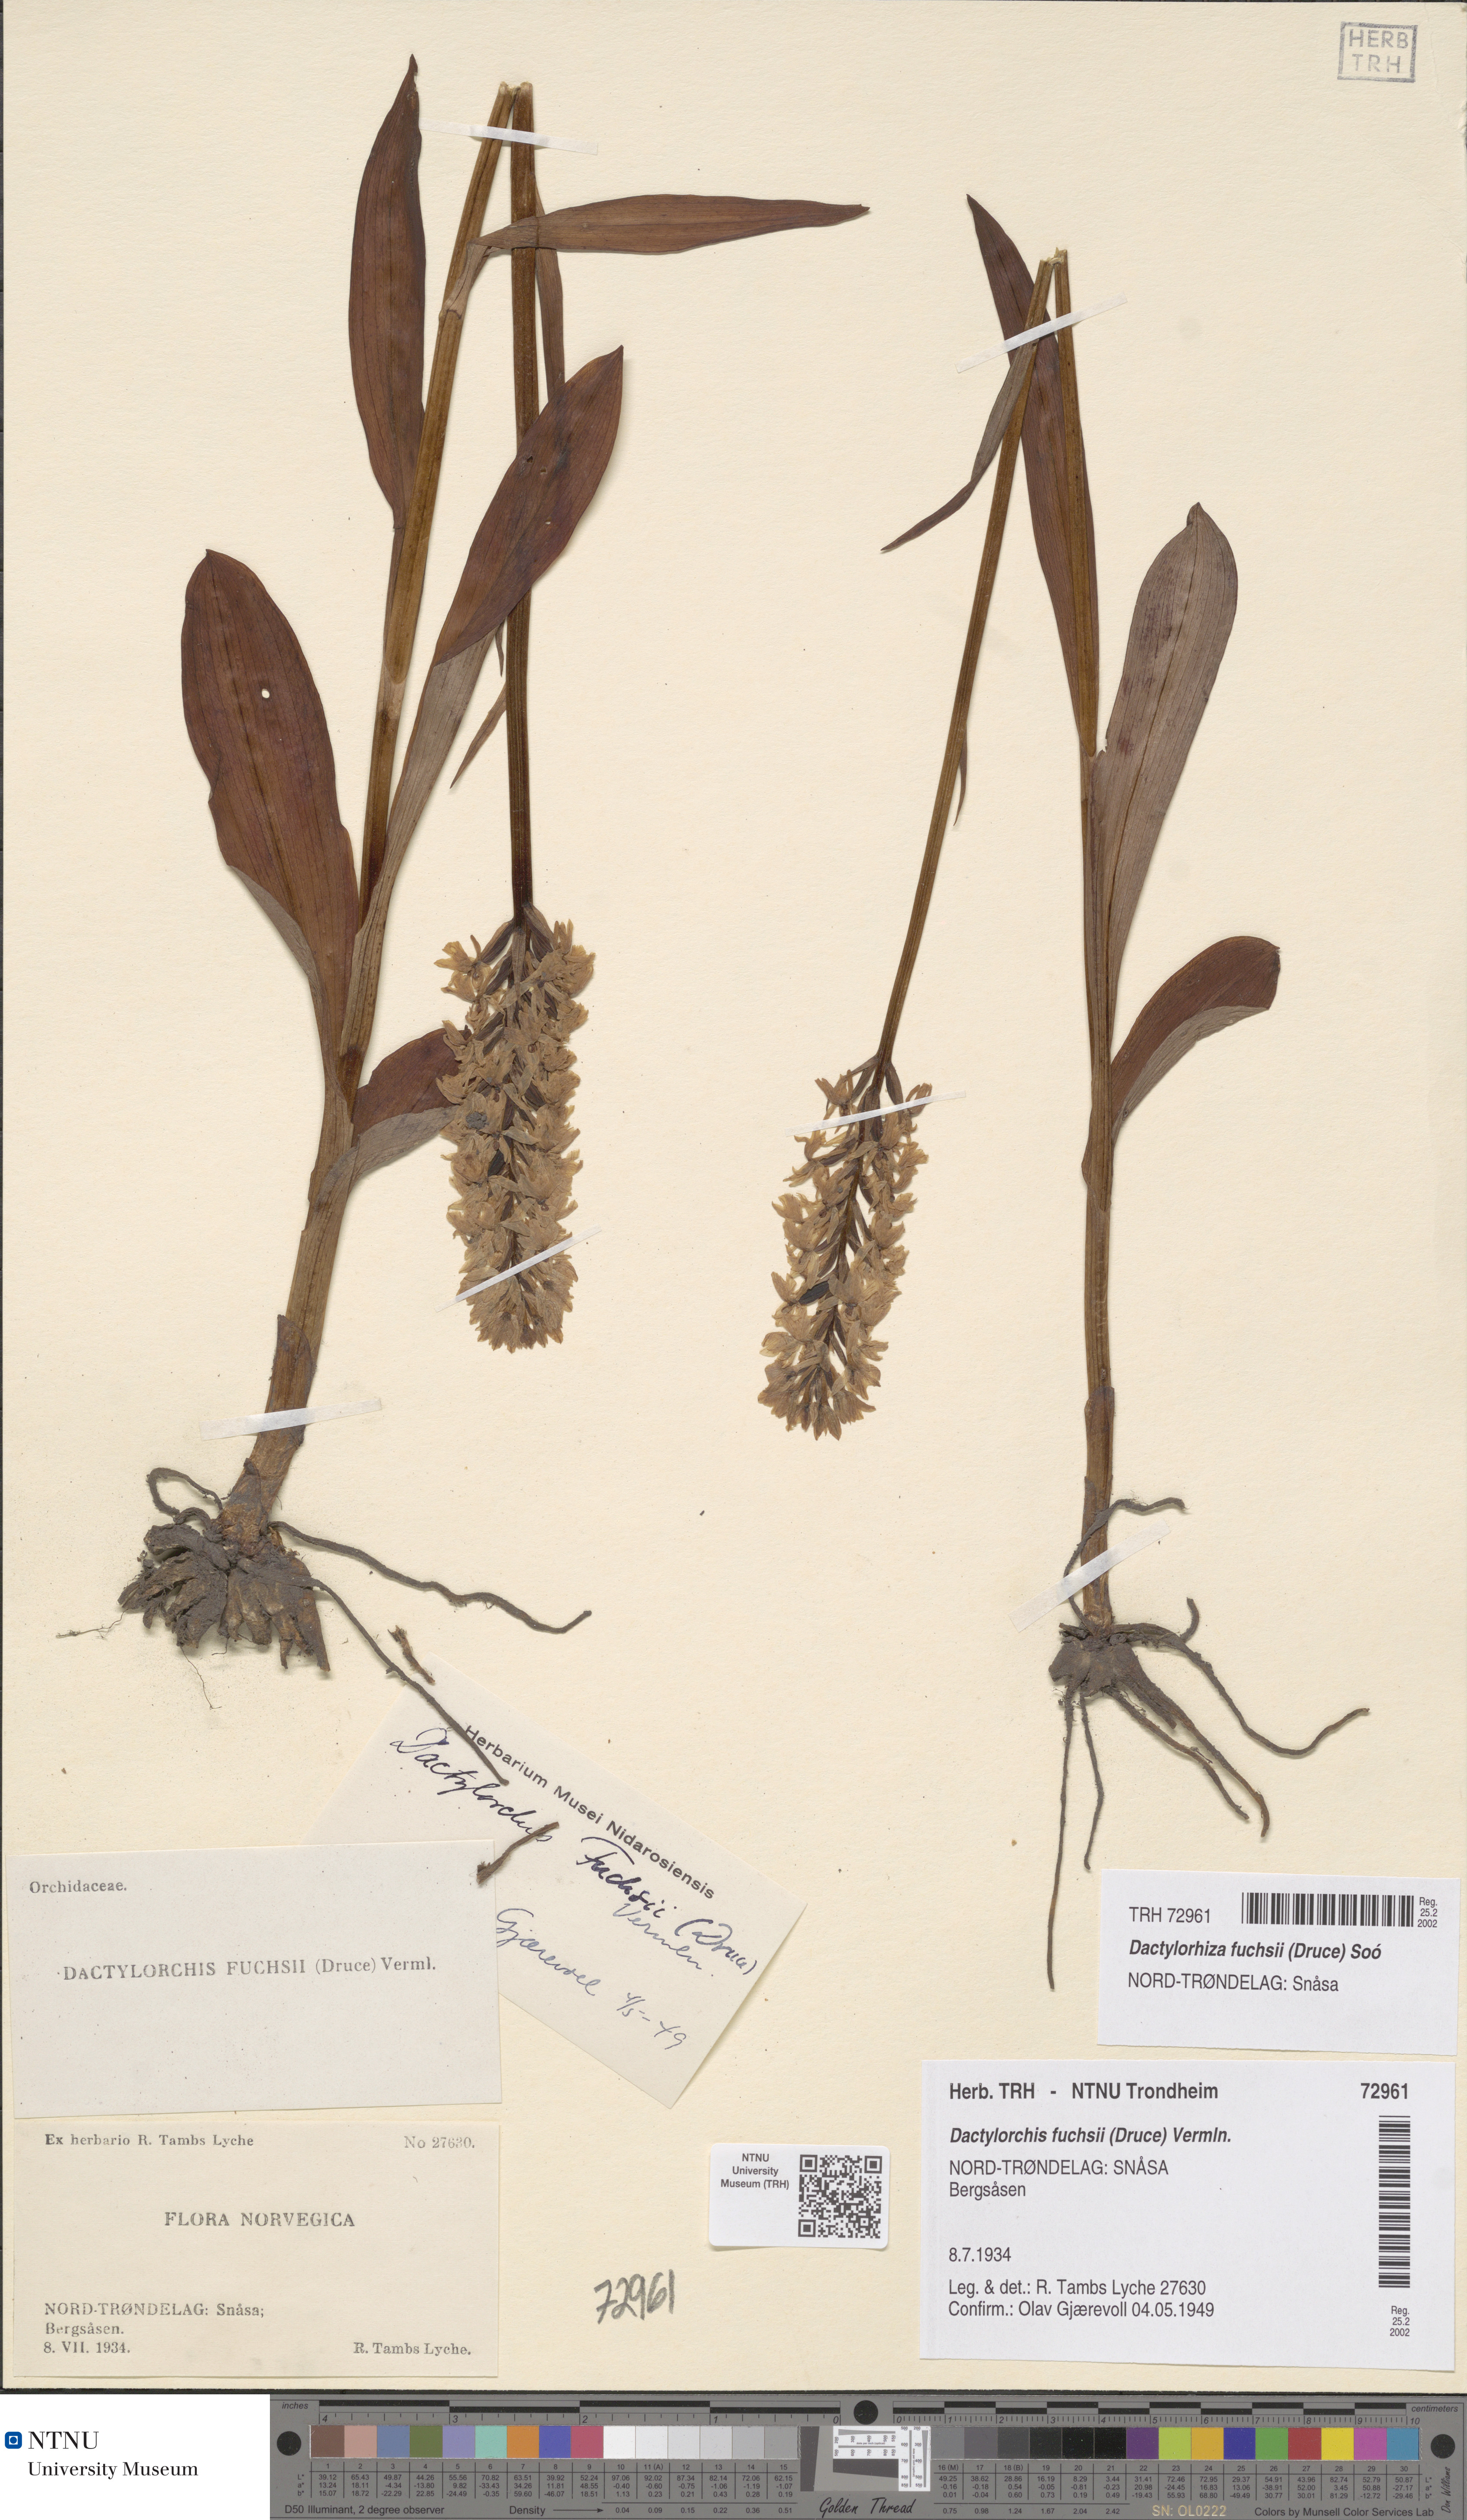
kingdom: Plantae
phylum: Tracheophyta
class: Liliopsida
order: Asparagales
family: Orchidaceae
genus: Dactylorhiza
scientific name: Dactylorhiza maculata
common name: Heath spotted-orchid
